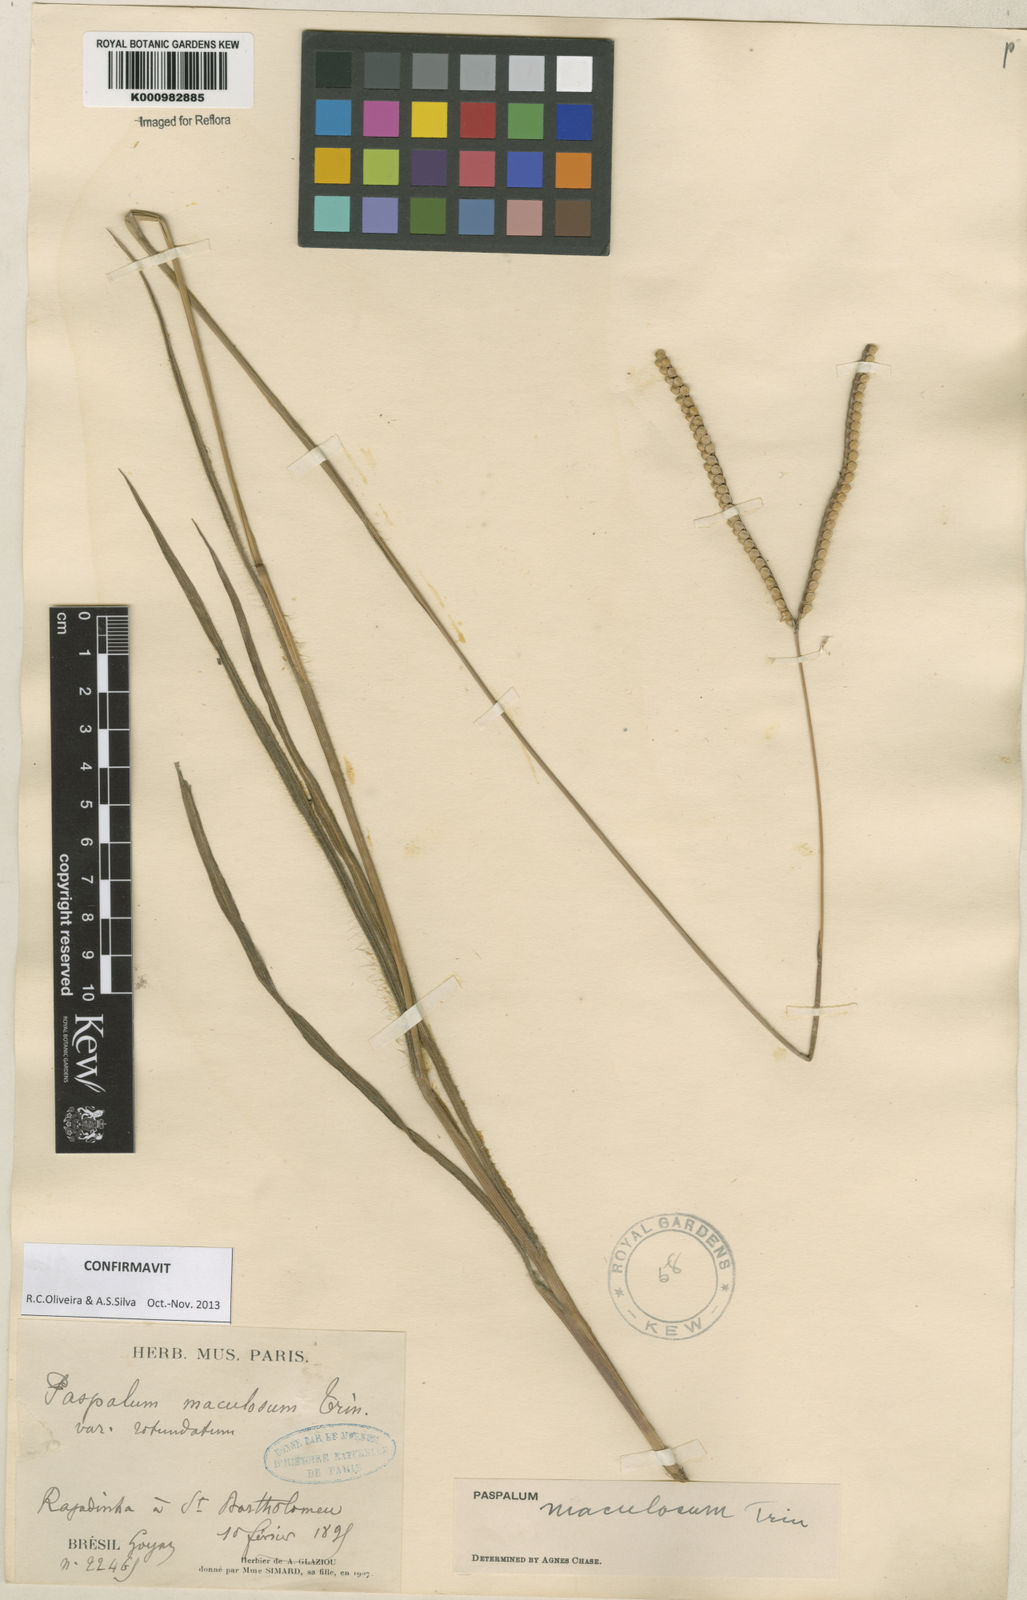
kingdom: Plantae
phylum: Tracheophyta
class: Liliopsida
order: Poales
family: Poaceae
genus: Paspalum
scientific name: Paspalum maculosum
